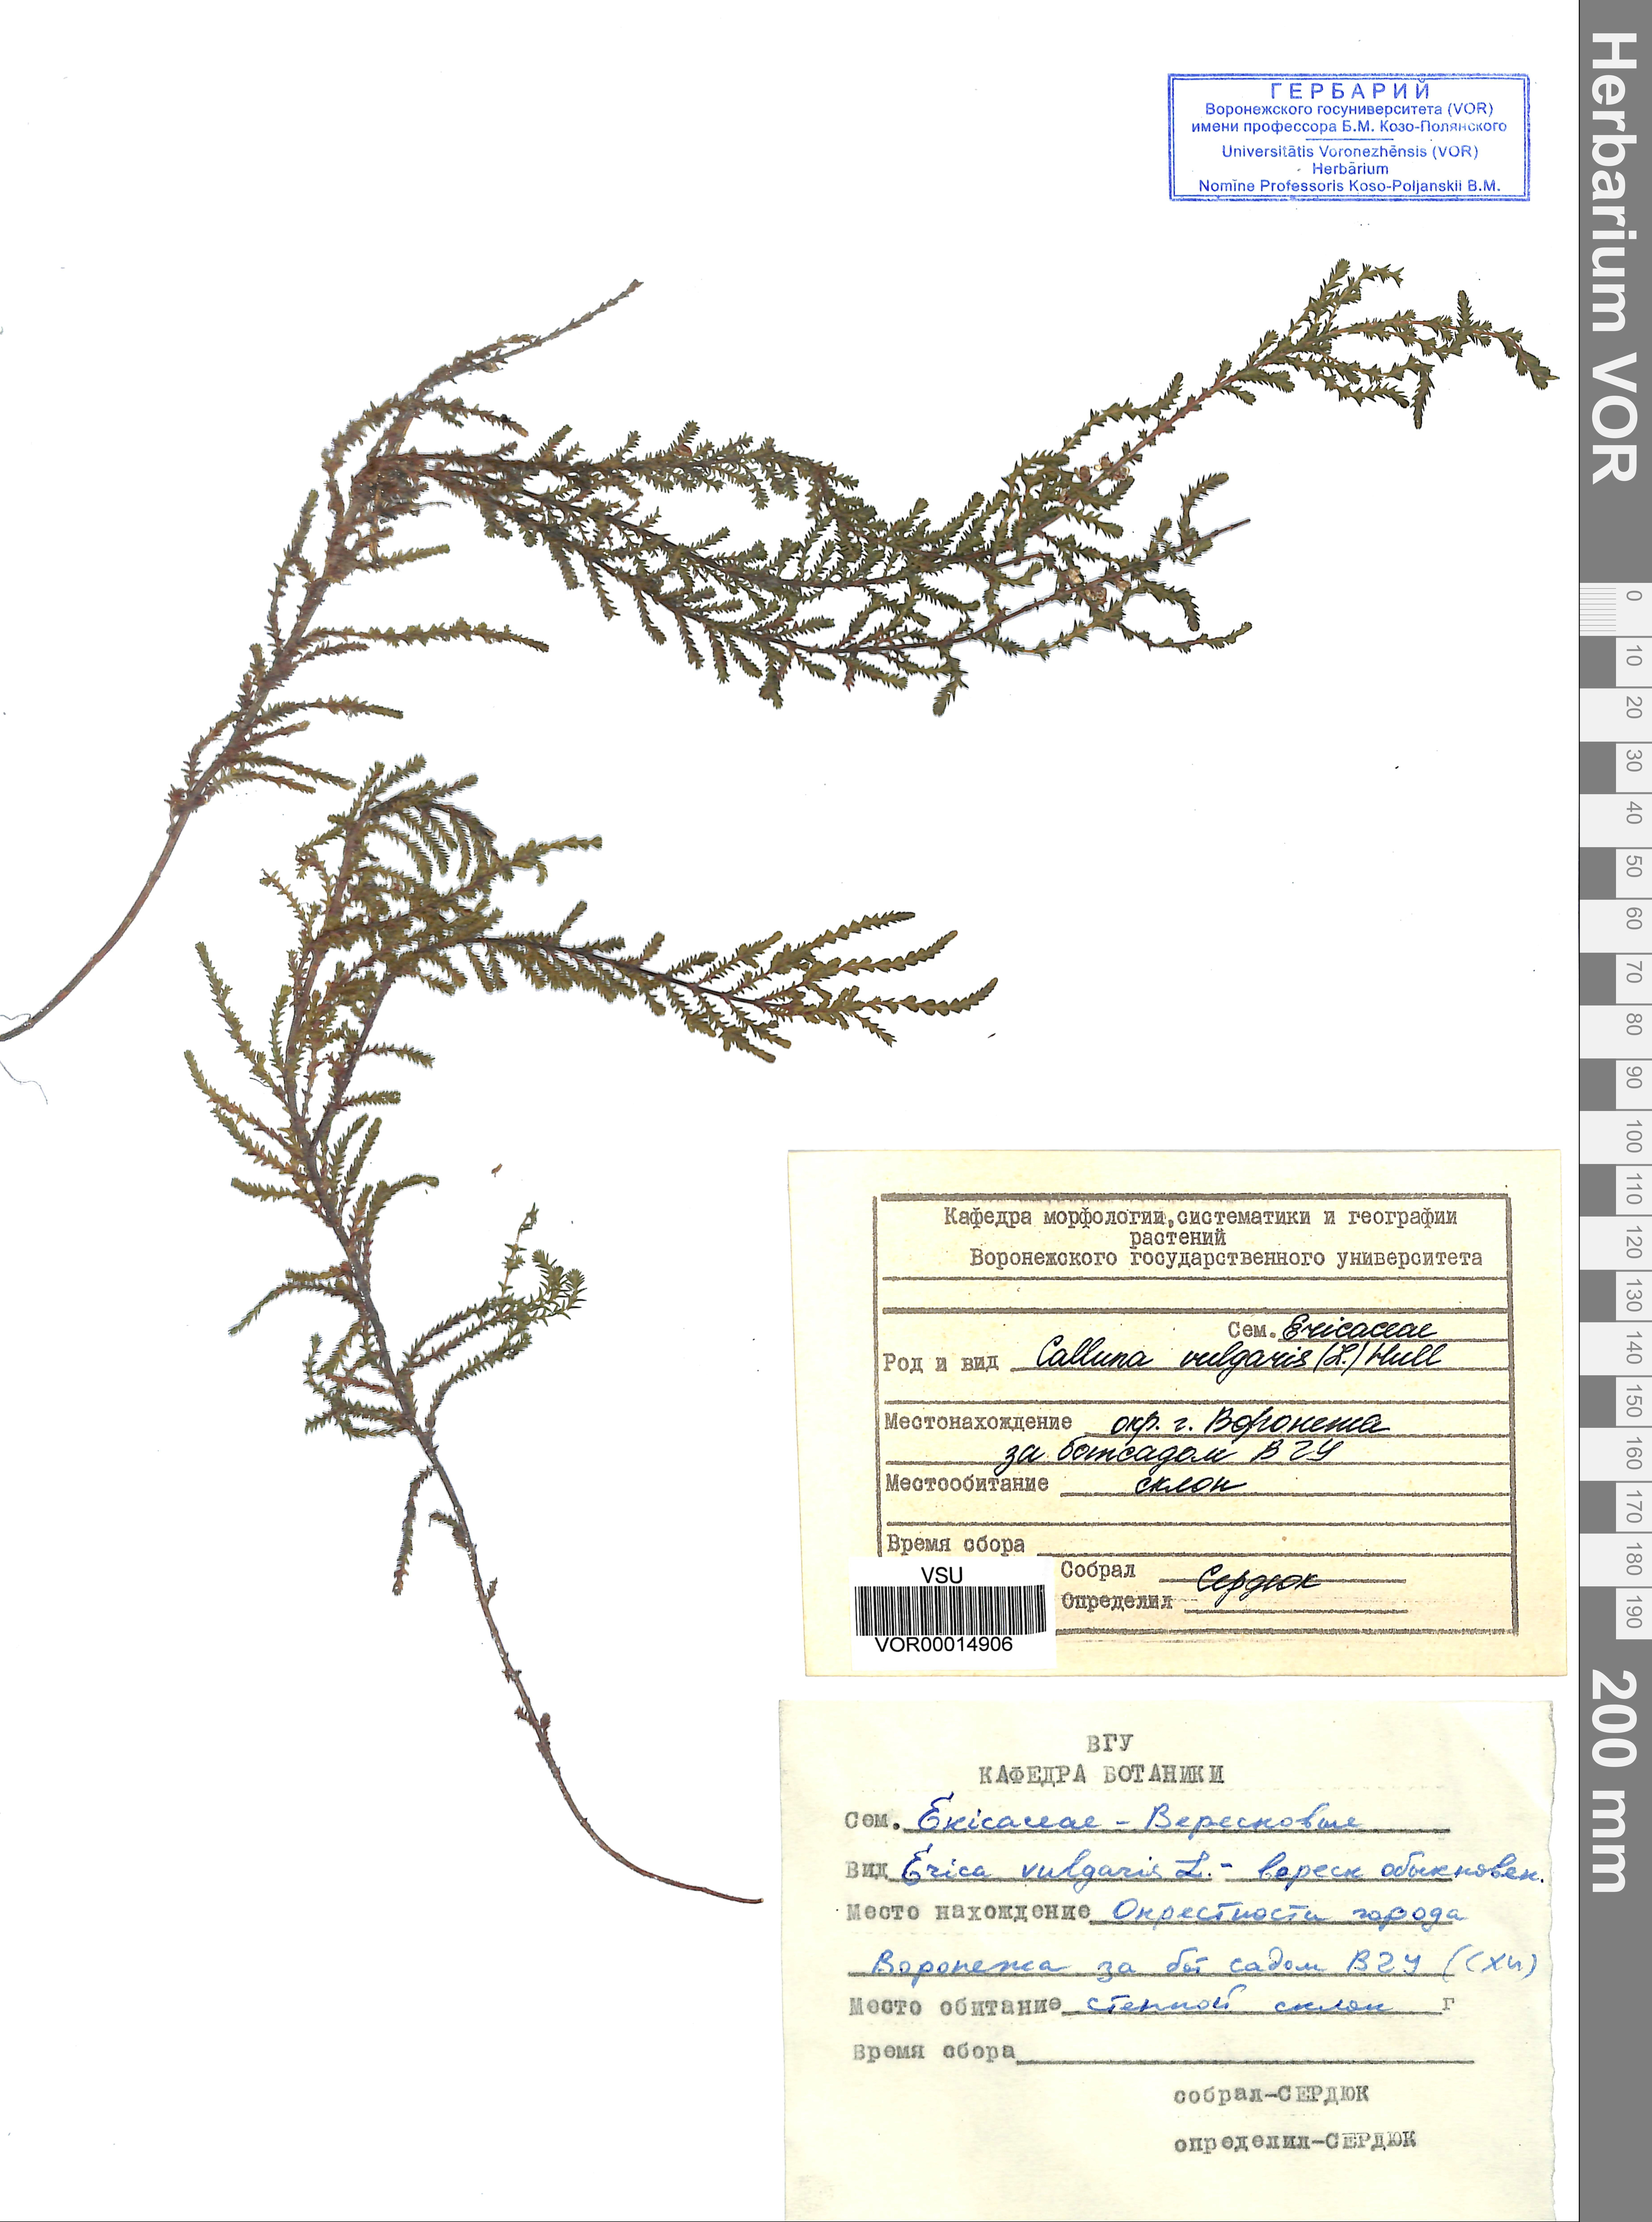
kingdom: Plantae
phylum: Tracheophyta
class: Magnoliopsida
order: Ericales
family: Ericaceae
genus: Calluna
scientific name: Calluna vulgaris
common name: Heather
